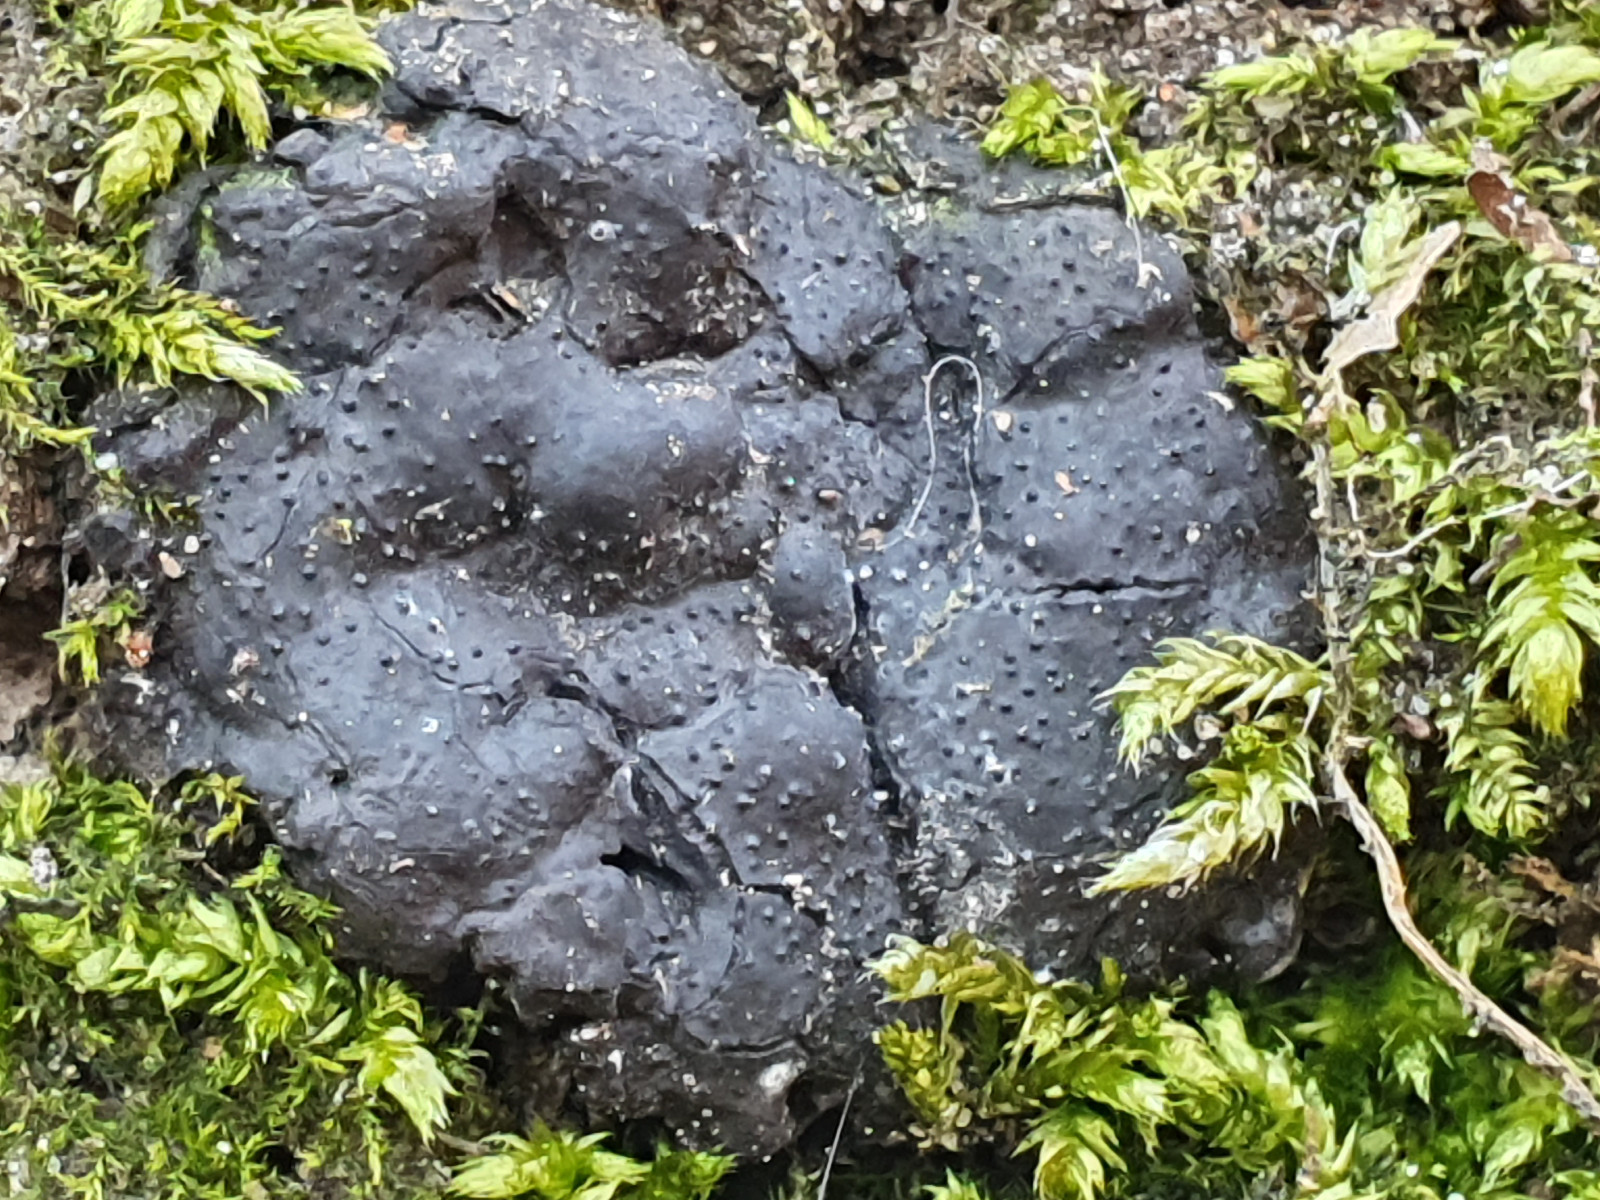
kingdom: Fungi
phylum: Ascomycota
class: Sordariomycetes
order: Xylariales
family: Xylariaceae
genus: Kretzschmaria
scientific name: Kretzschmaria deusta
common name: stor kulsvamp
